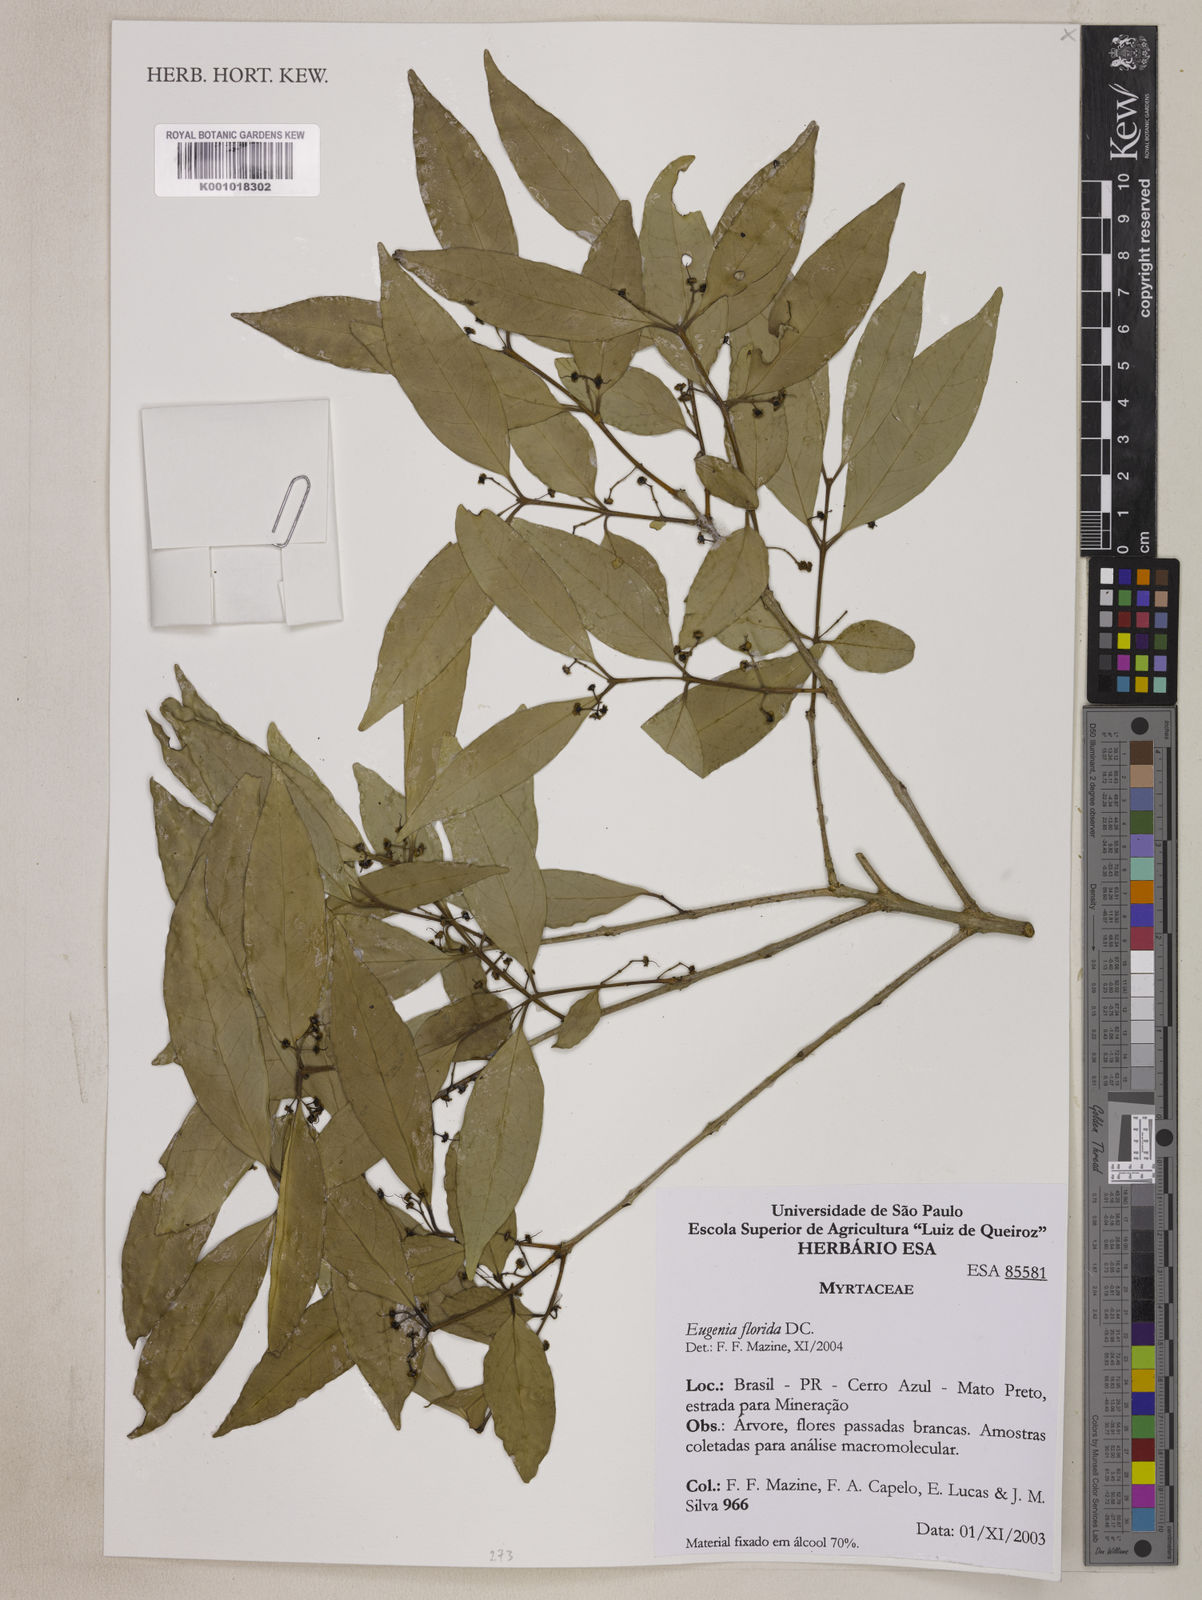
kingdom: Plantae
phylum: Tracheophyta
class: Magnoliopsida
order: Myrtales
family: Myrtaceae
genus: Eugenia
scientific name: Eugenia florida
